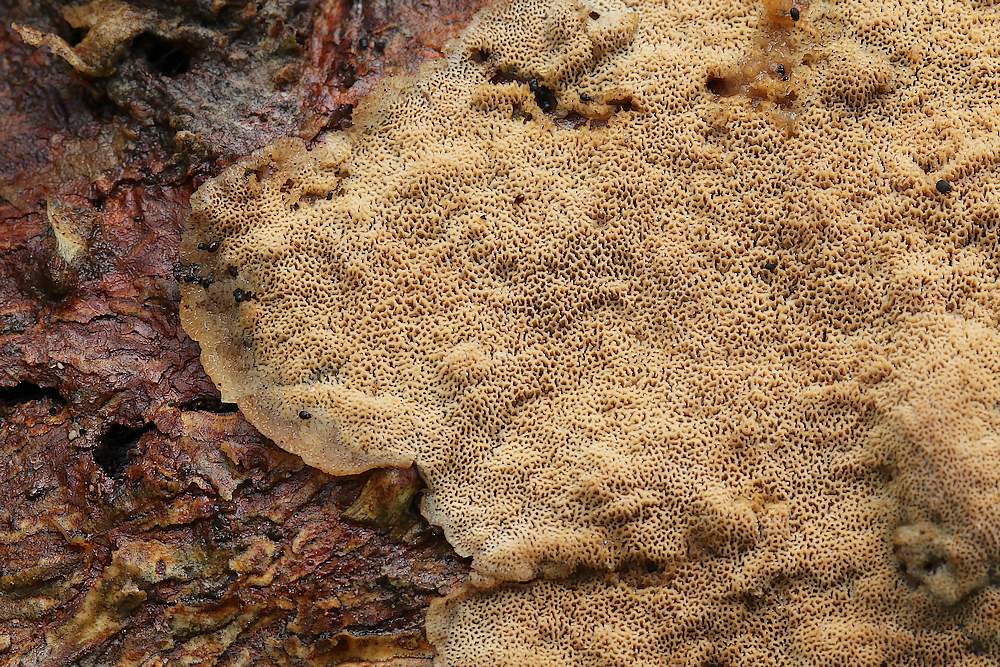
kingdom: Fungi
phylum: Basidiomycota
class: Agaricomycetes
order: Hymenochaetales
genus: Trichaptum
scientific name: Trichaptum abietinum
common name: almindelig violporesvamp
